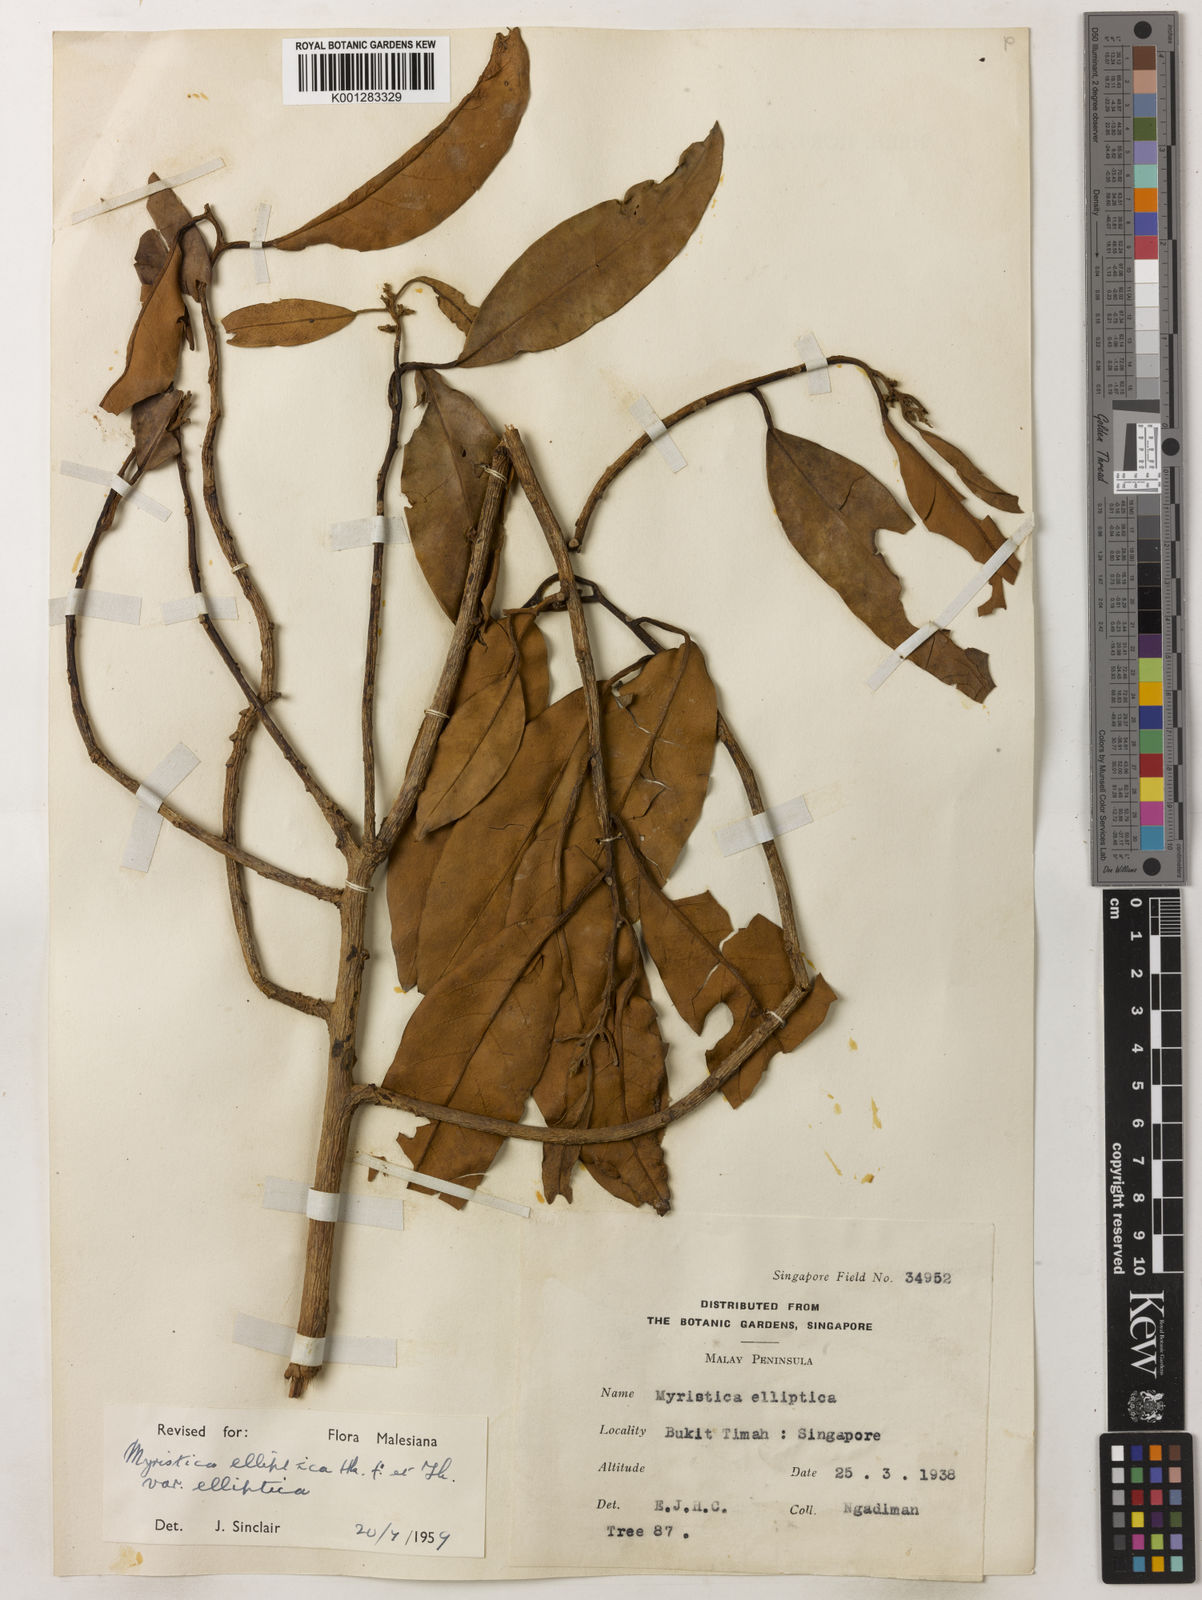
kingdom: Plantae
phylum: Tracheophyta
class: Magnoliopsida
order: Magnoliales
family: Myristicaceae
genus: Myristica
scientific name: Myristica elliptica
